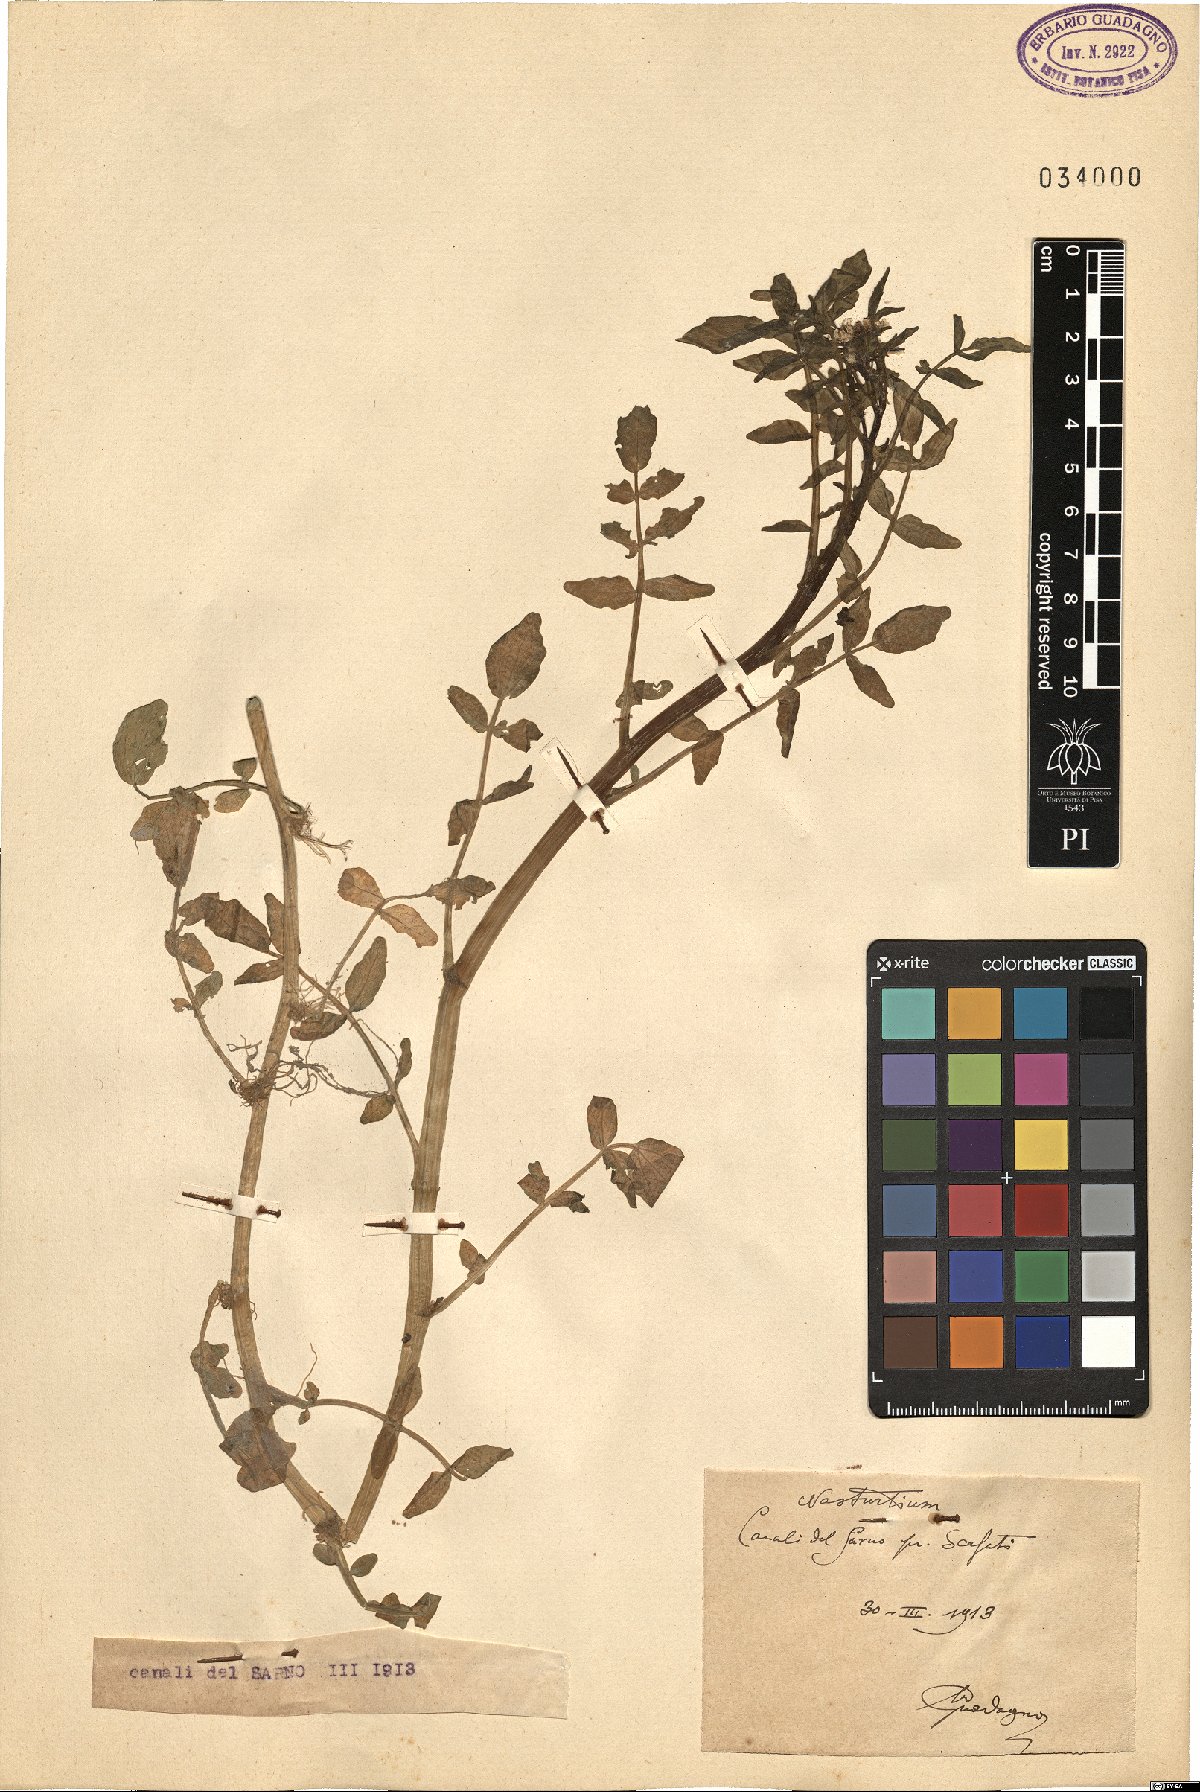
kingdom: Plantae
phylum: Tracheophyta
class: Magnoliopsida
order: Brassicales
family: Brassicaceae
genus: Nasturtium
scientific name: Nasturtium
